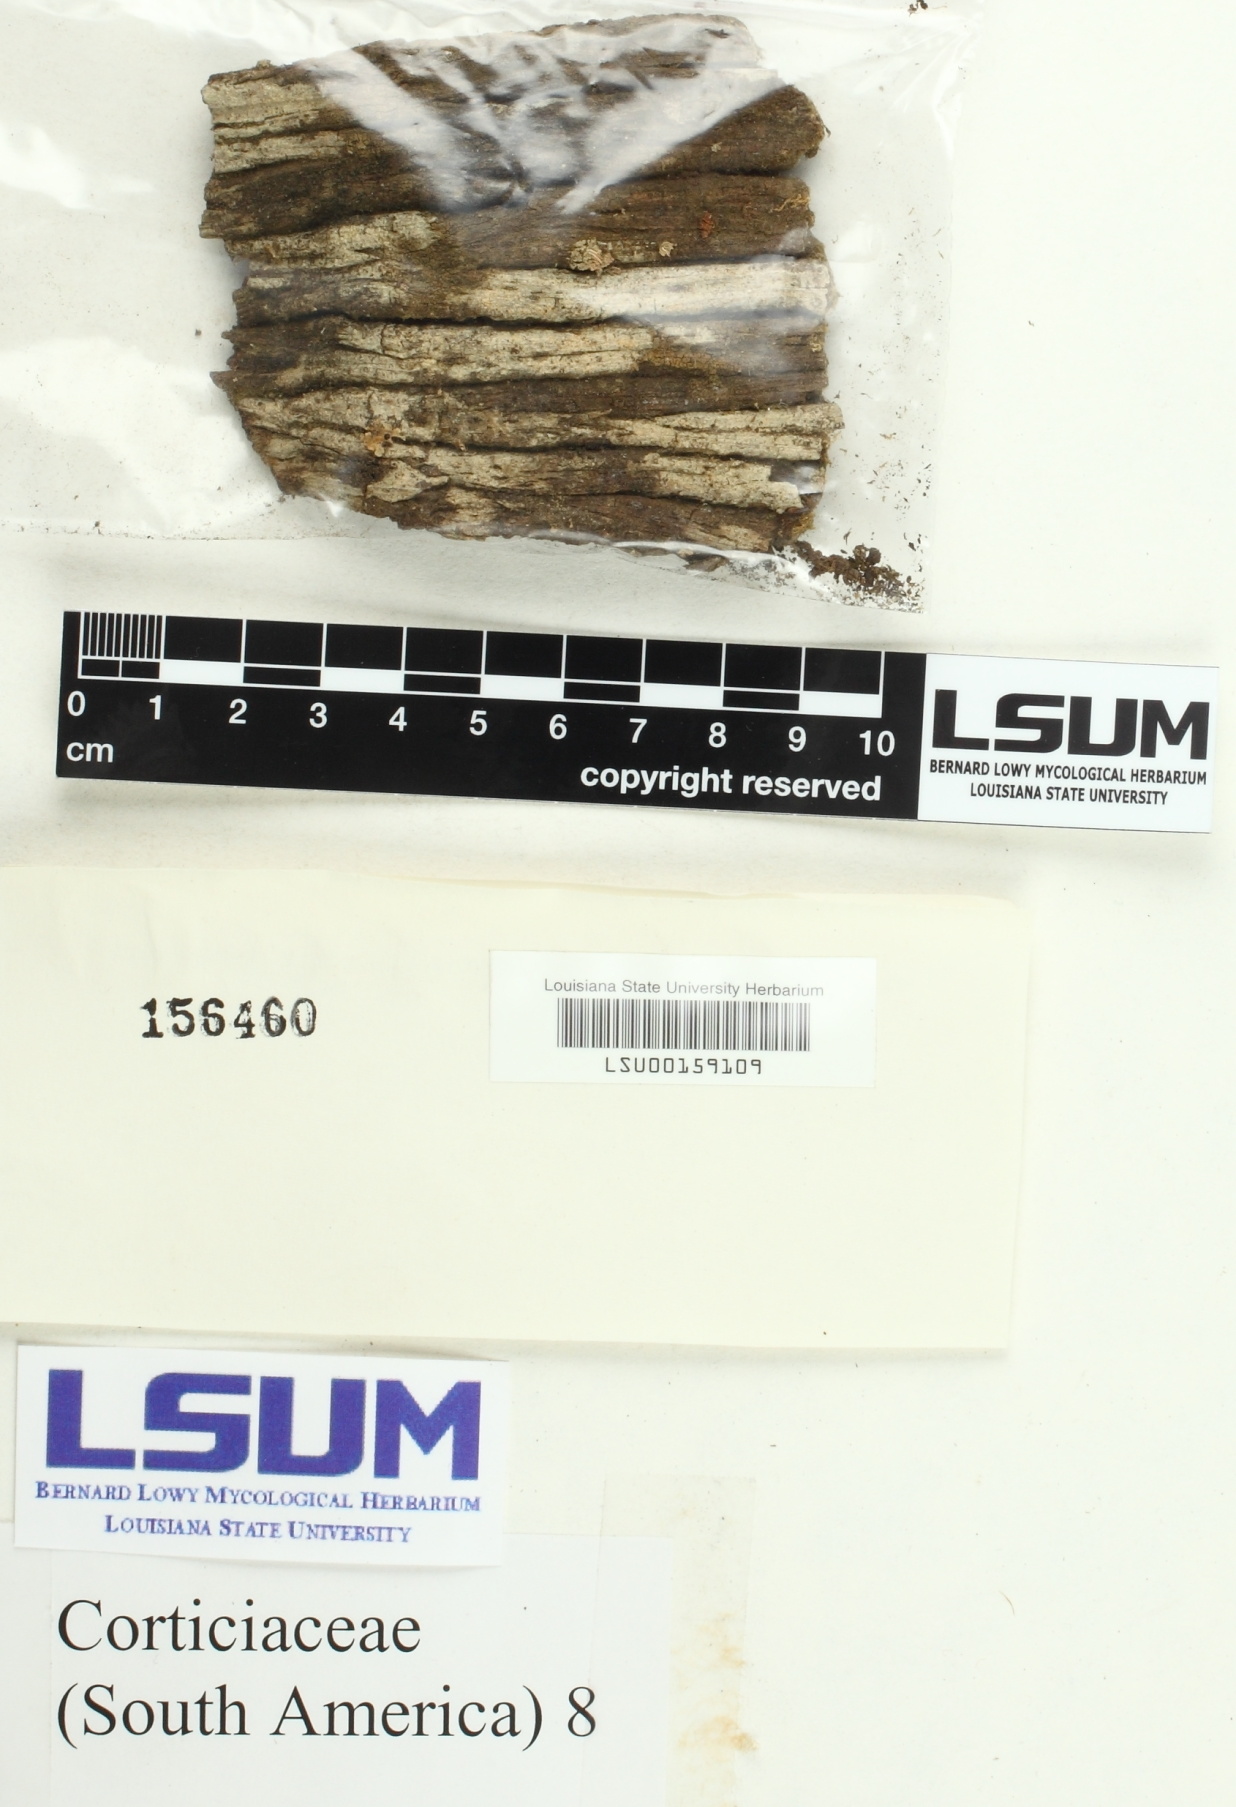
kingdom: Fungi
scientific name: Fungi
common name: Fungi
